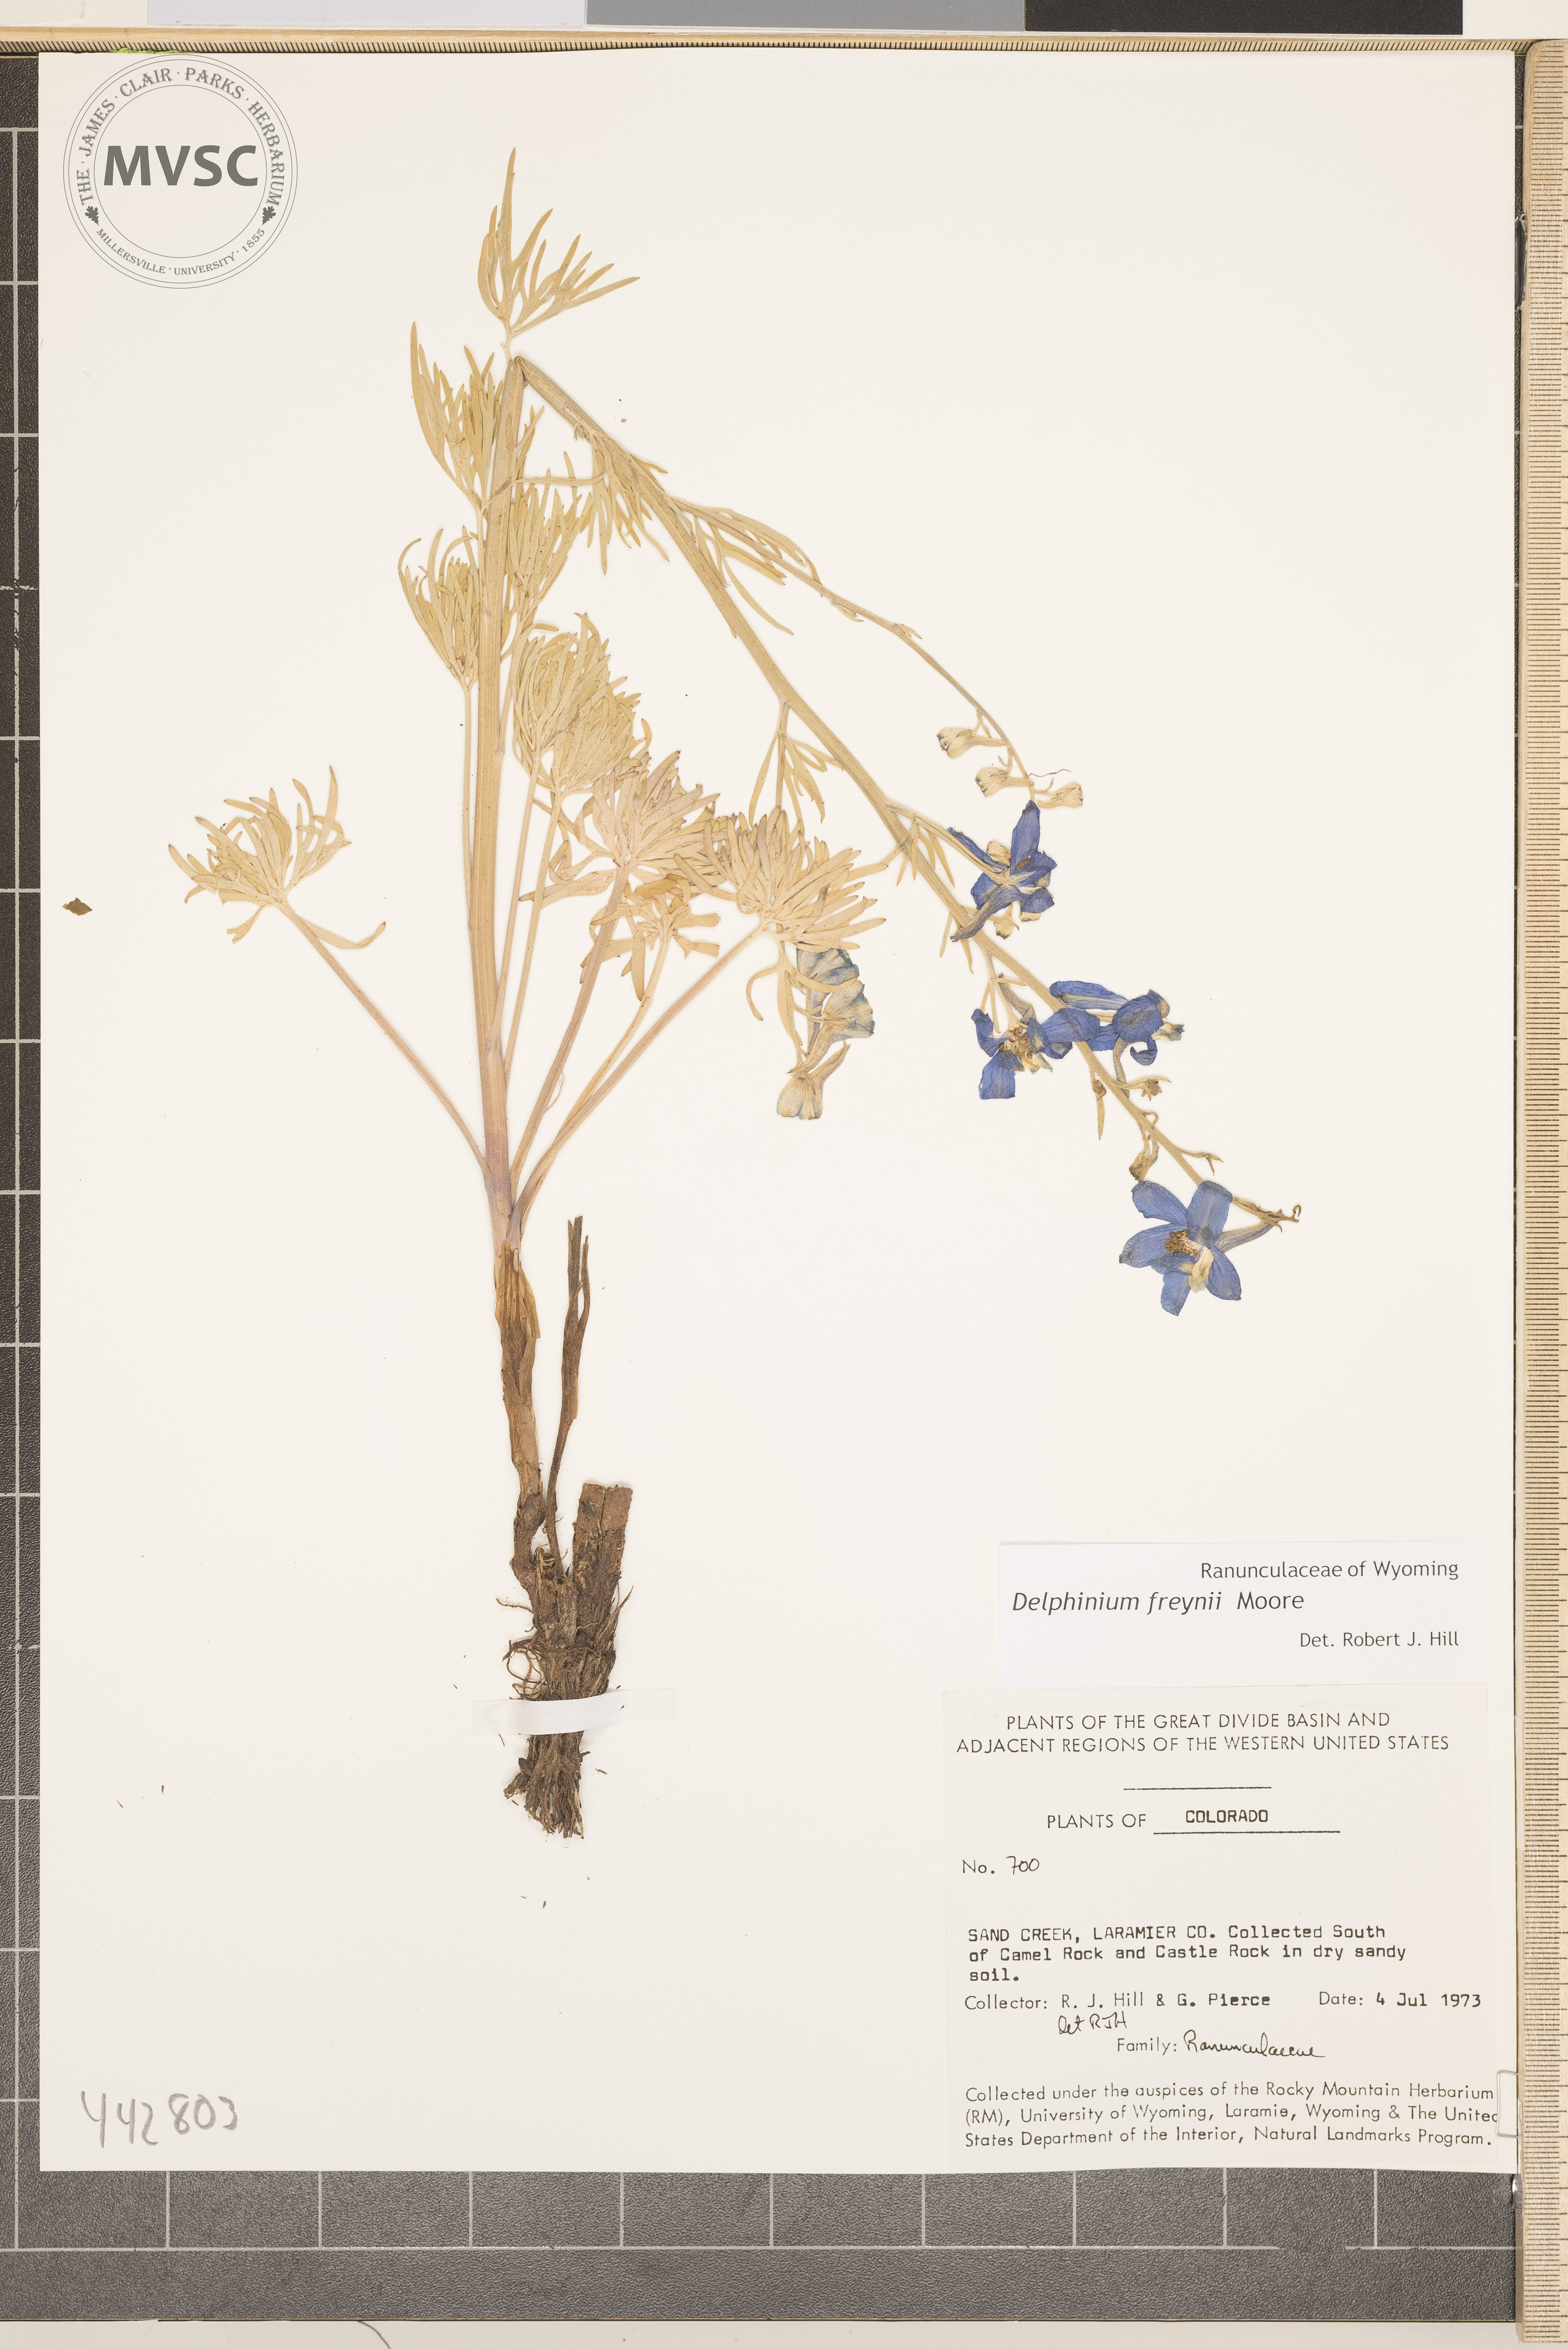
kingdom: Plantae
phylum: Tracheophyta
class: Magnoliopsida
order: Ranunculales
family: Ranunculaceae
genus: Delphinium
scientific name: Delphinium freynii
